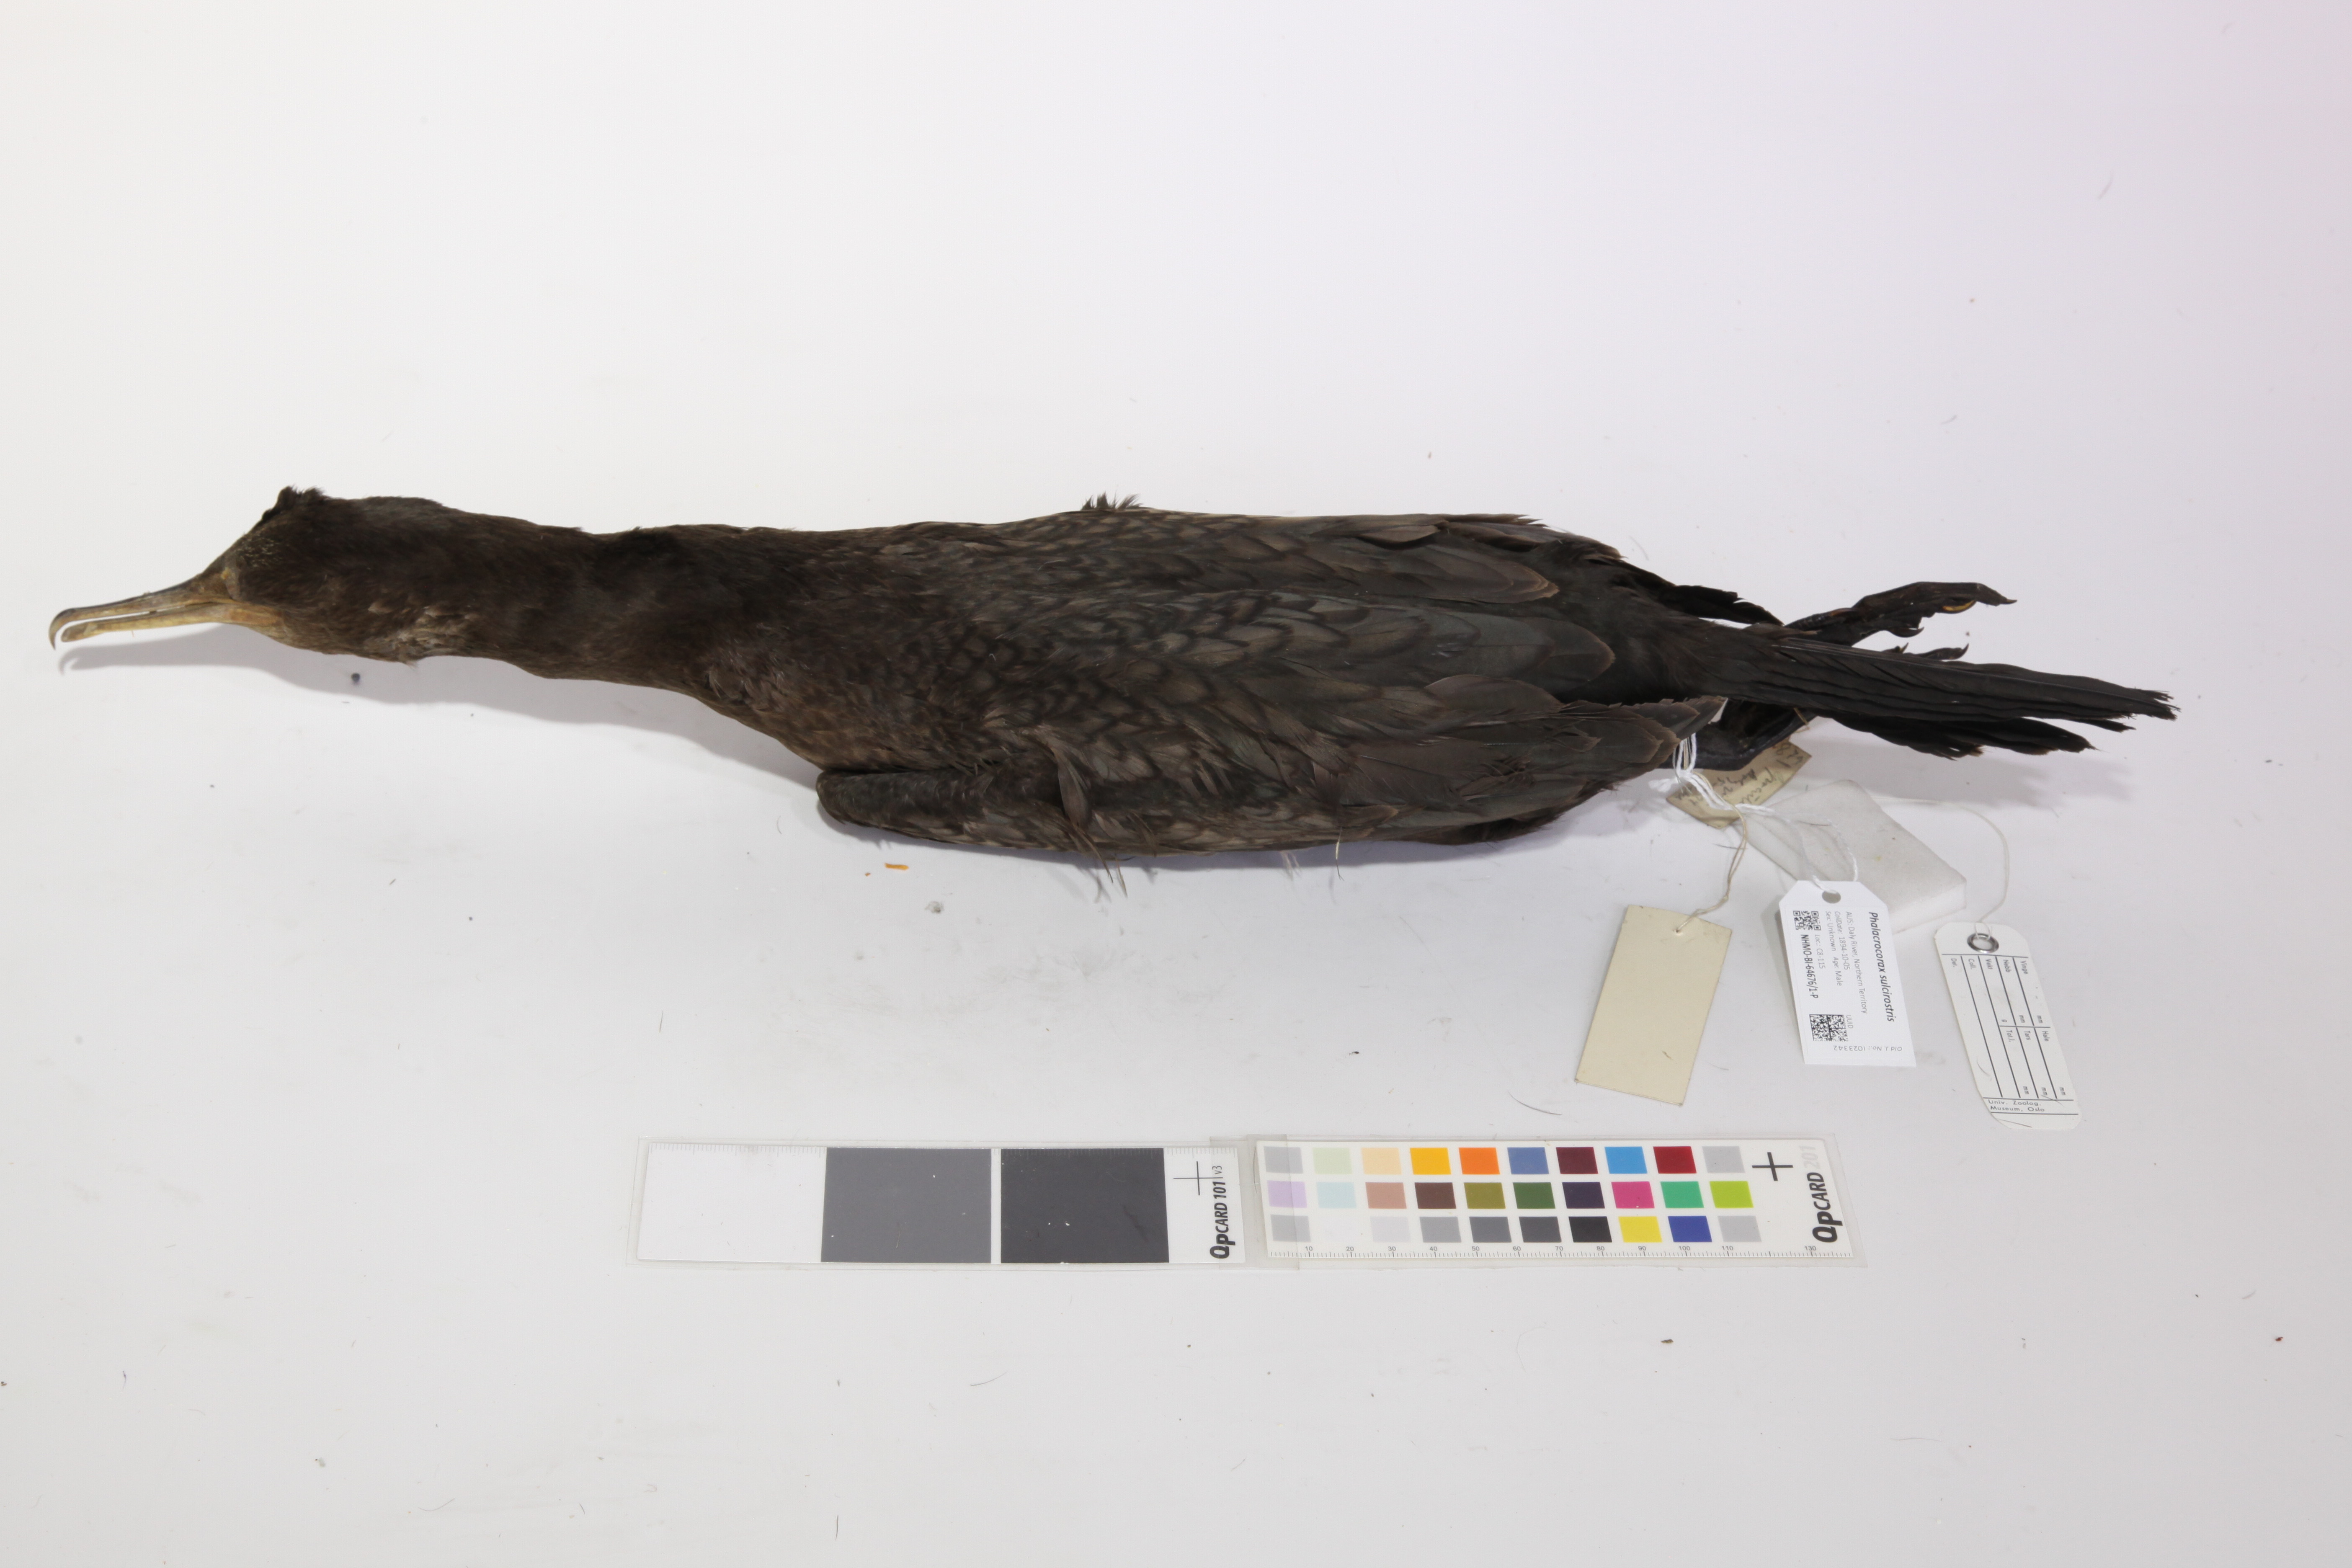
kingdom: Animalia
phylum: Chordata
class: Aves
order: Suliformes
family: Phalacrocoracidae
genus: Phalacrocorax
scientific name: Phalacrocorax sulcirostris
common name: Little black cormorant
